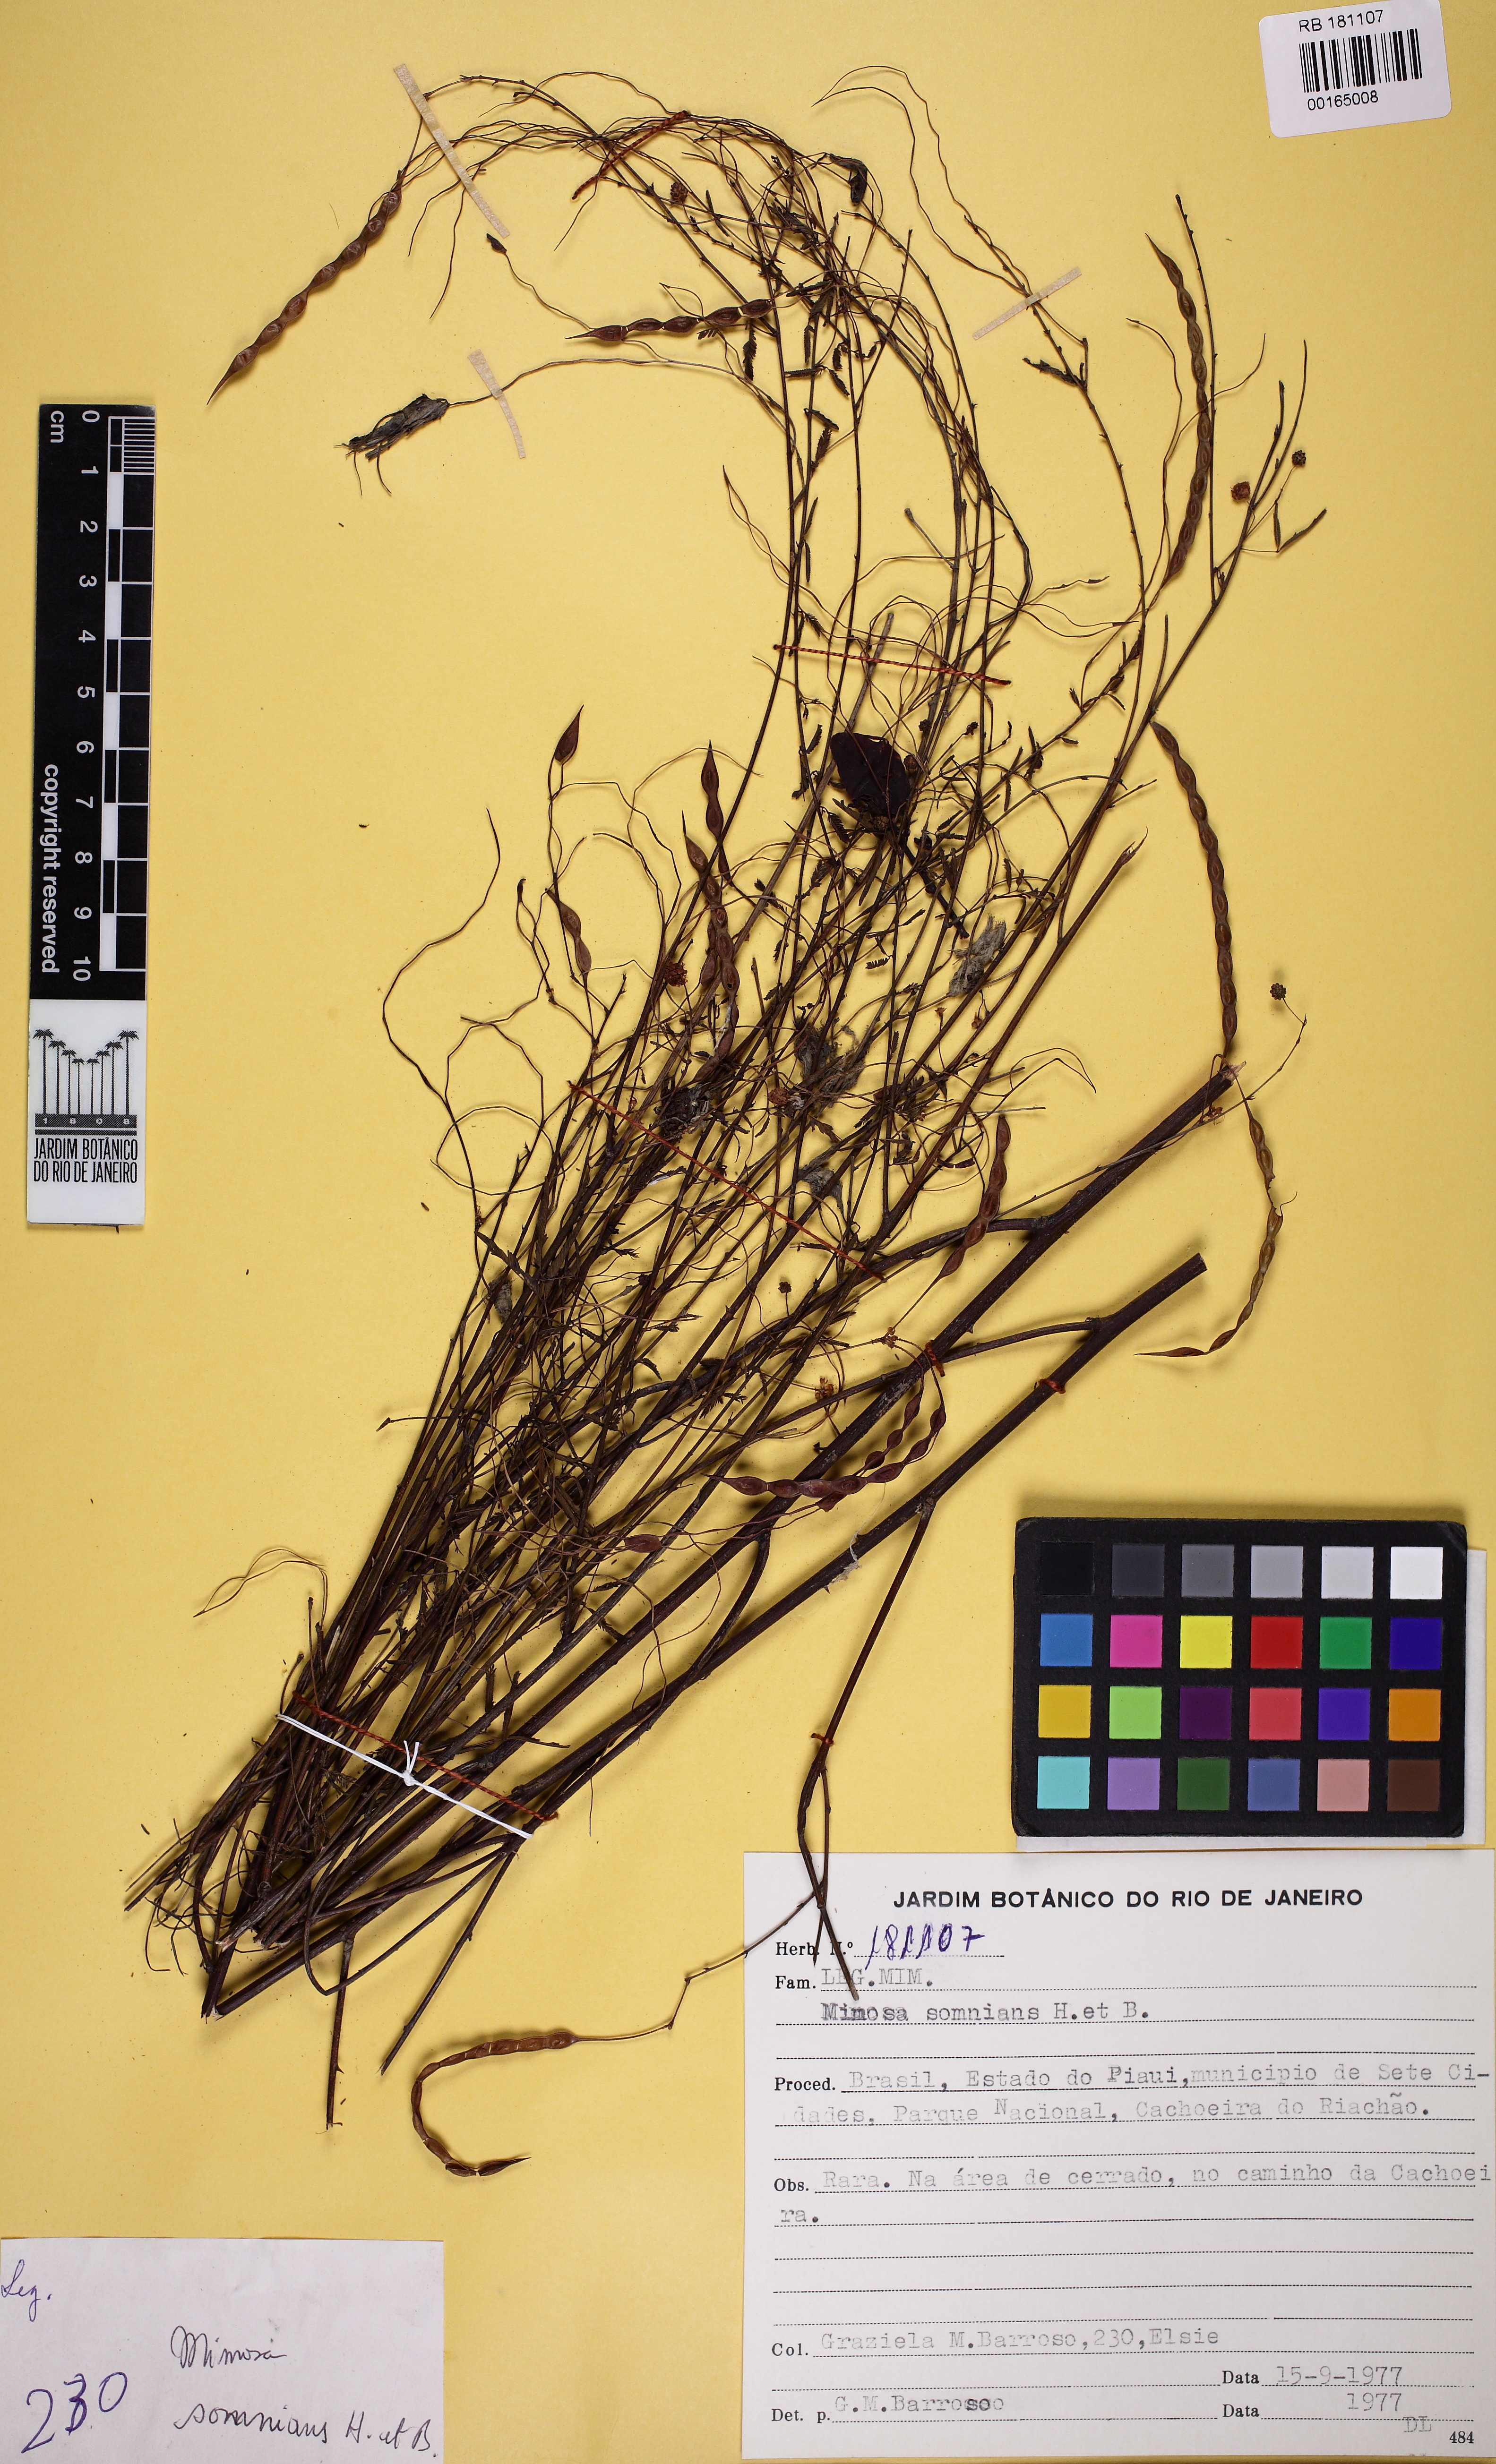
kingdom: Plantae
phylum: Tracheophyta
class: Magnoliopsida
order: Fabales
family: Fabaceae
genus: Mimosa
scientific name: Mimosa somnians
